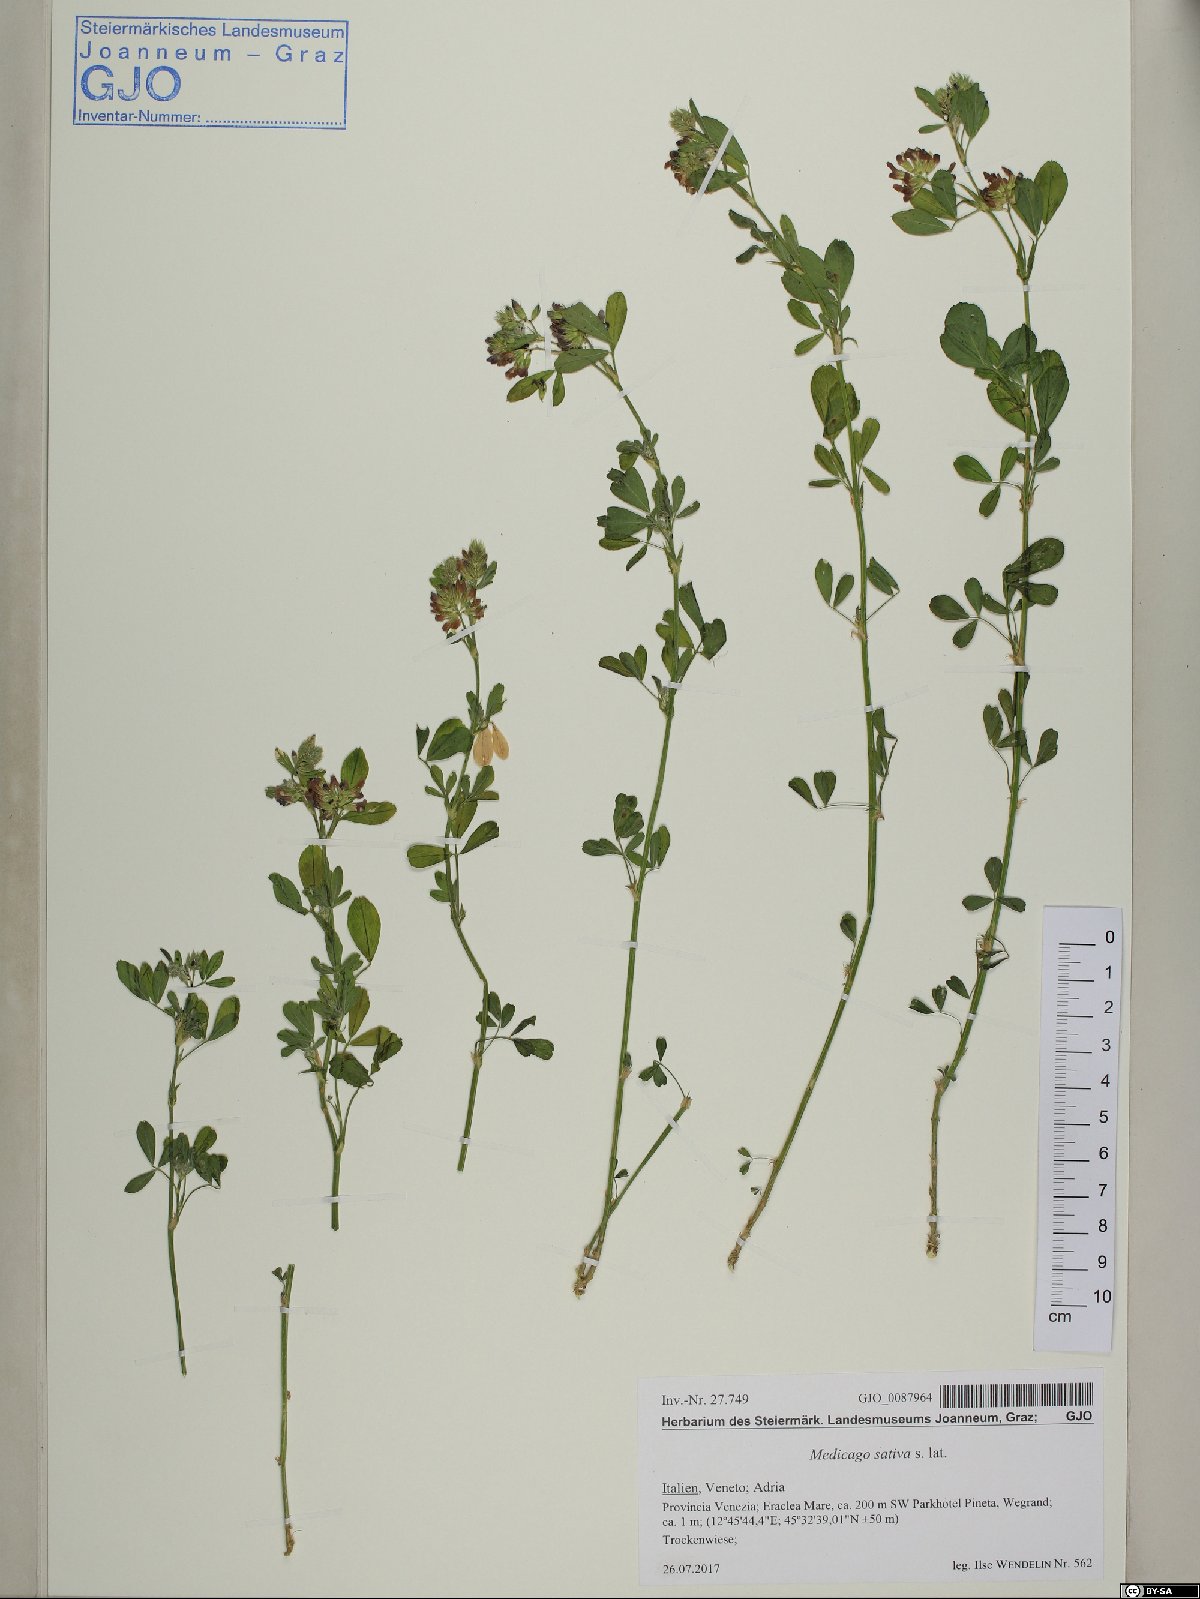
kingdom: Plantae
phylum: Tracheophyta
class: Magnoliopsida
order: Fabales
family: Fabaceae
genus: Medicago
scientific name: Medicago sativa
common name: Alfalfa
